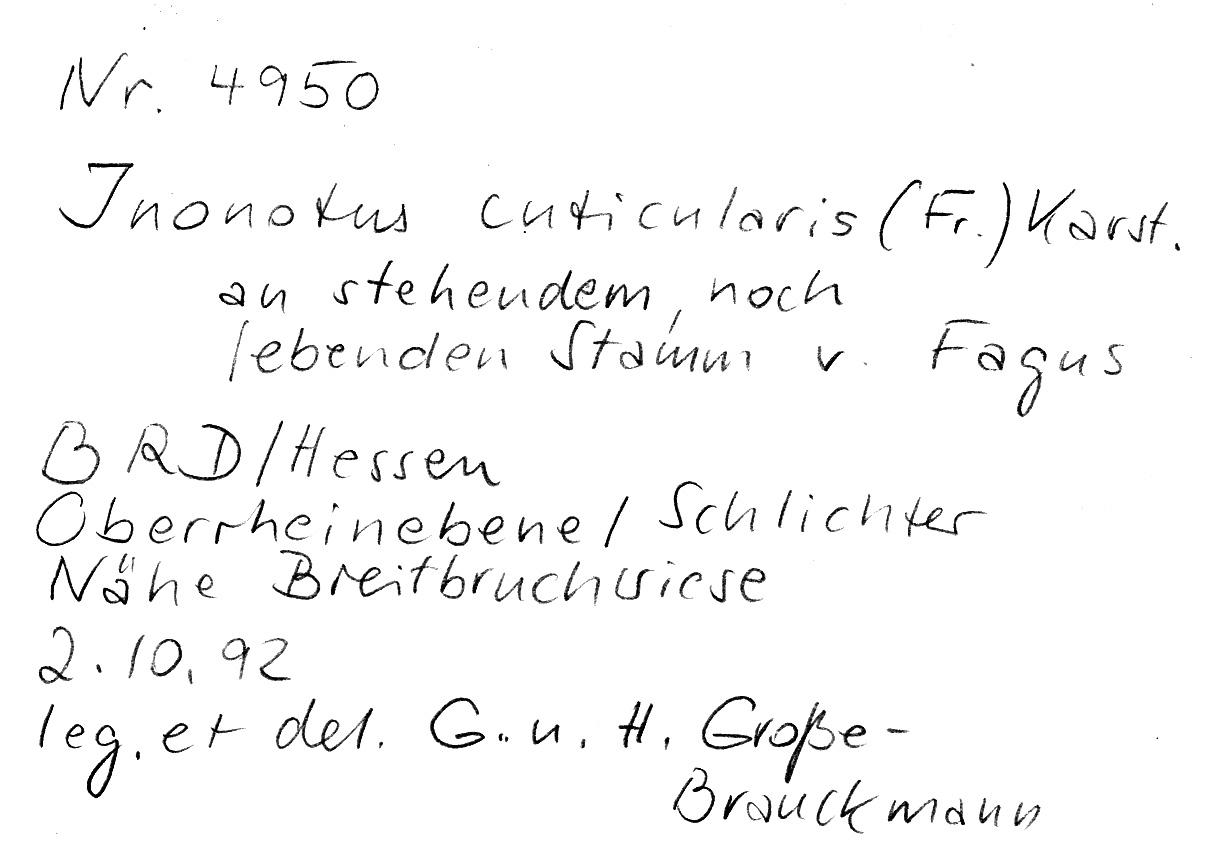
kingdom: Fungi
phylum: Basidiomycota
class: Agaricomycetes
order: Hymenochaetales
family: Hymenochaetaceae
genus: Inonotus
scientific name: Inonotus cuticularis
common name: Clustered bracket
